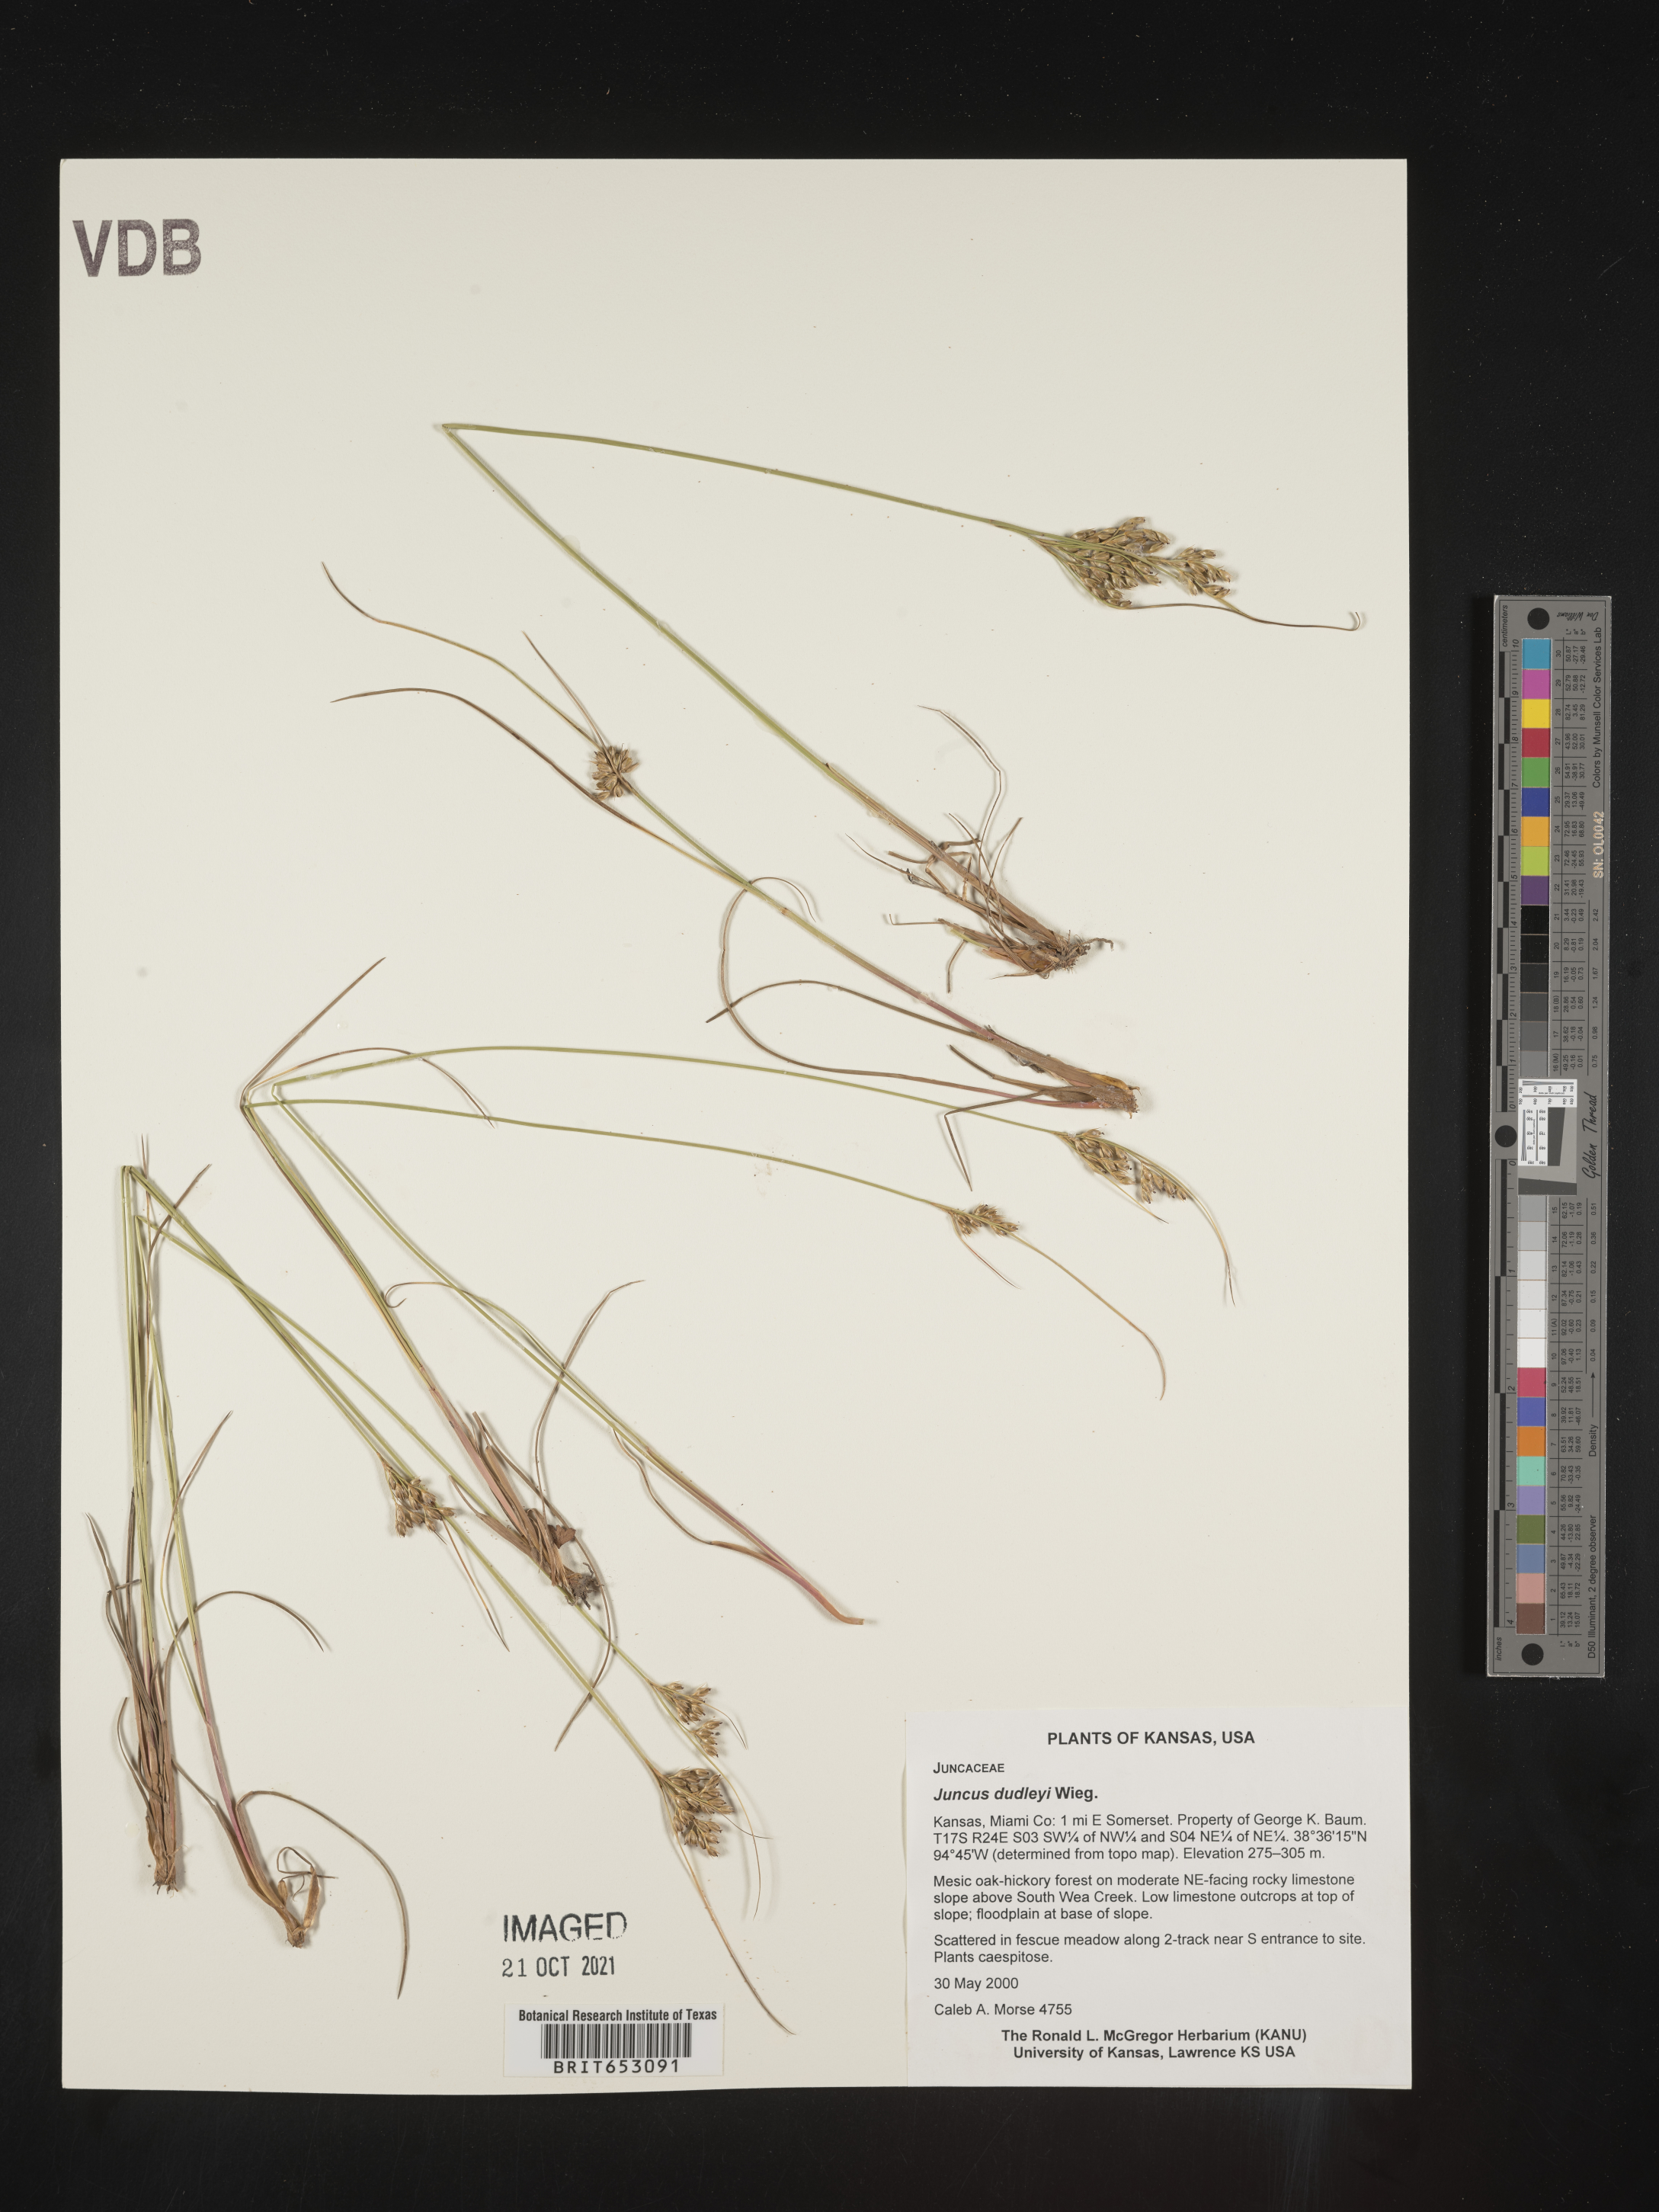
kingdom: Plantae
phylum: Tracheophyta
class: Liliopsida
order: Poales
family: Juncaceae
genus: Juncus
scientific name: Juncus dudleyi
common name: Dudley's rush
